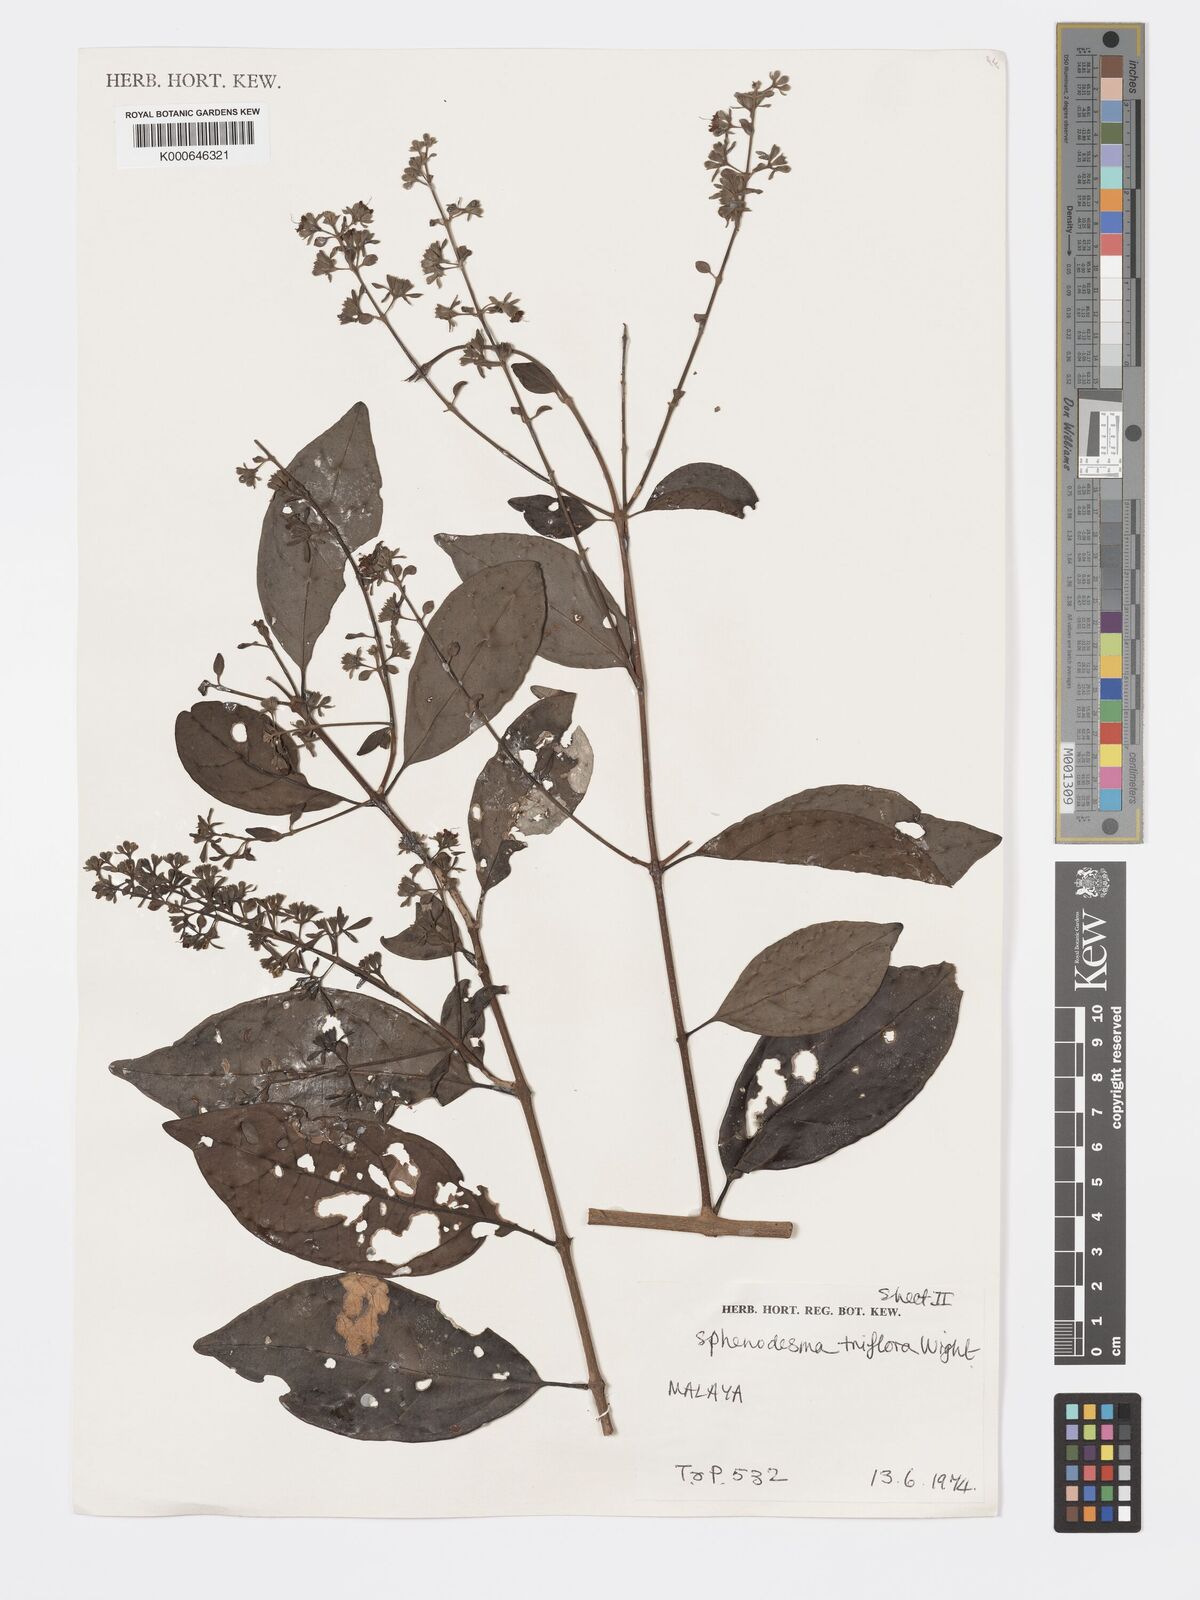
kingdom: Plantae
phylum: Tracheophyta
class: Magnoliopsida
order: Lamiales
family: Lamiaceae
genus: Sphenodesme
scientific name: Sphenodesme
